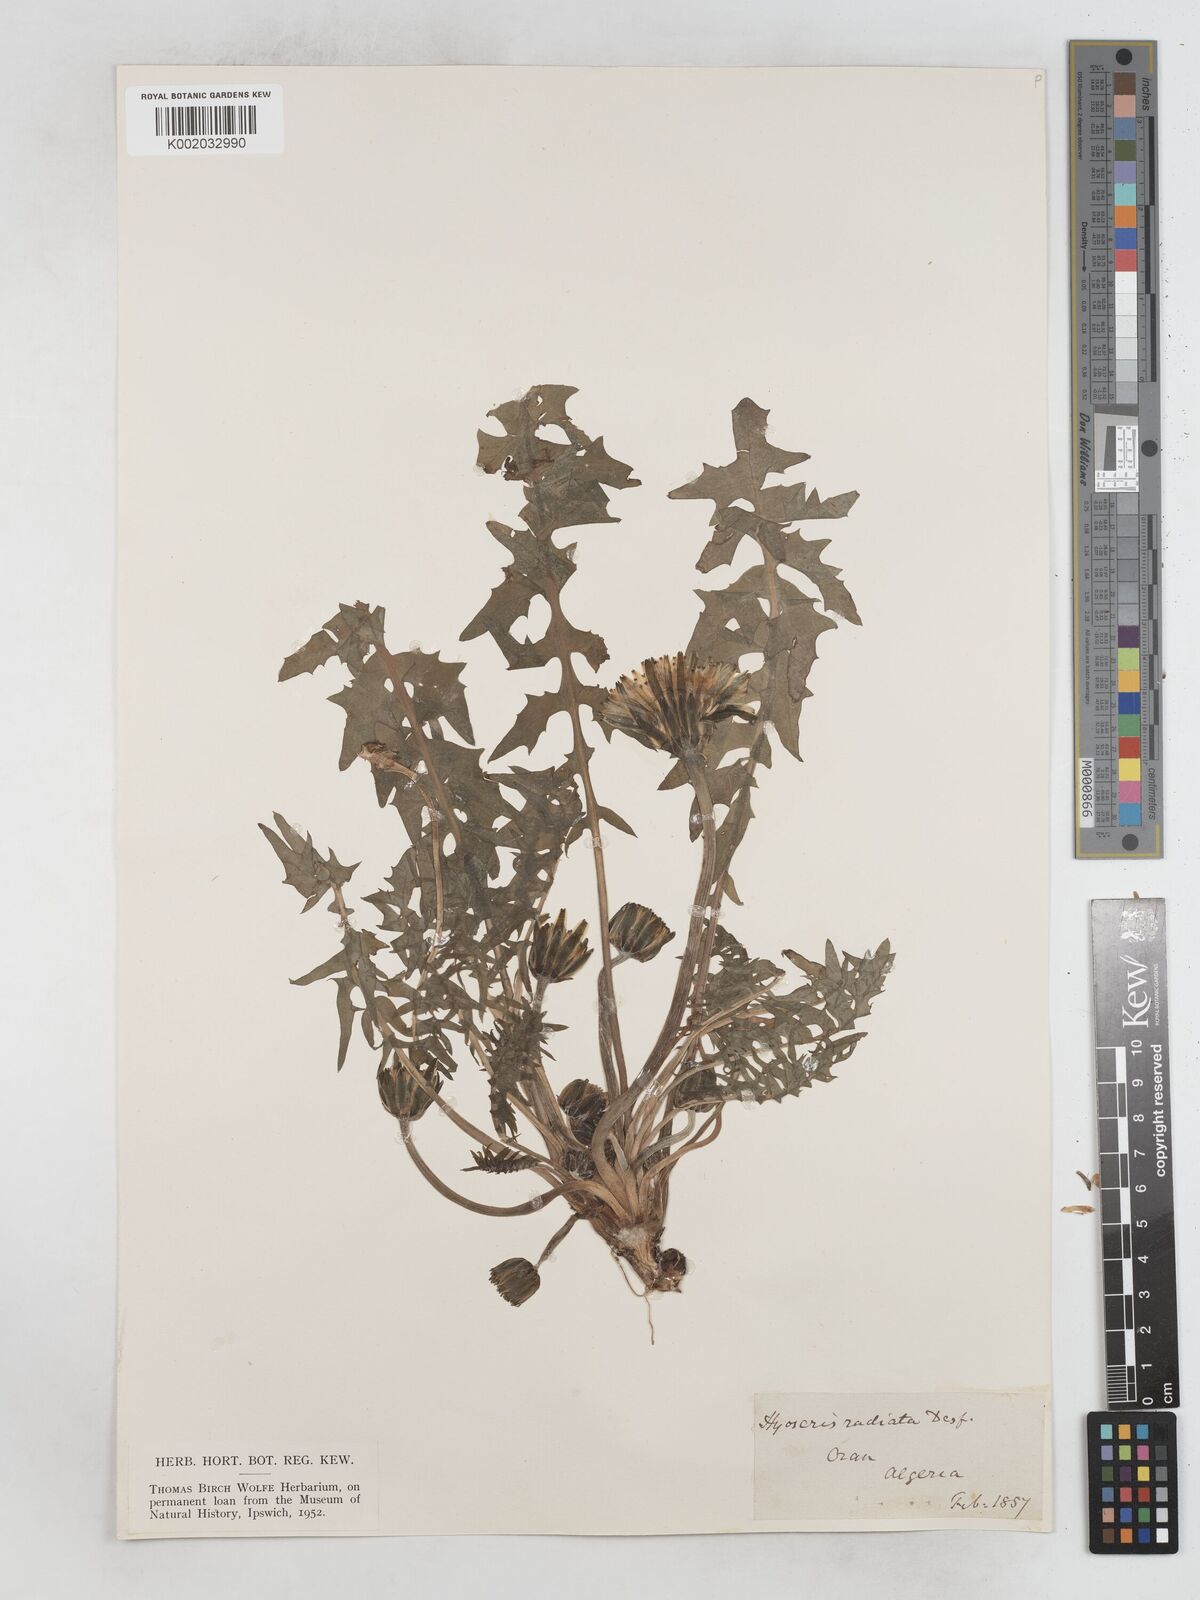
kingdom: Plantae
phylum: Tracheophyta
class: Magnoliopsida
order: Asterales
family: Asteraceae
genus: Hyoseris
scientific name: Hyoseris radiata
